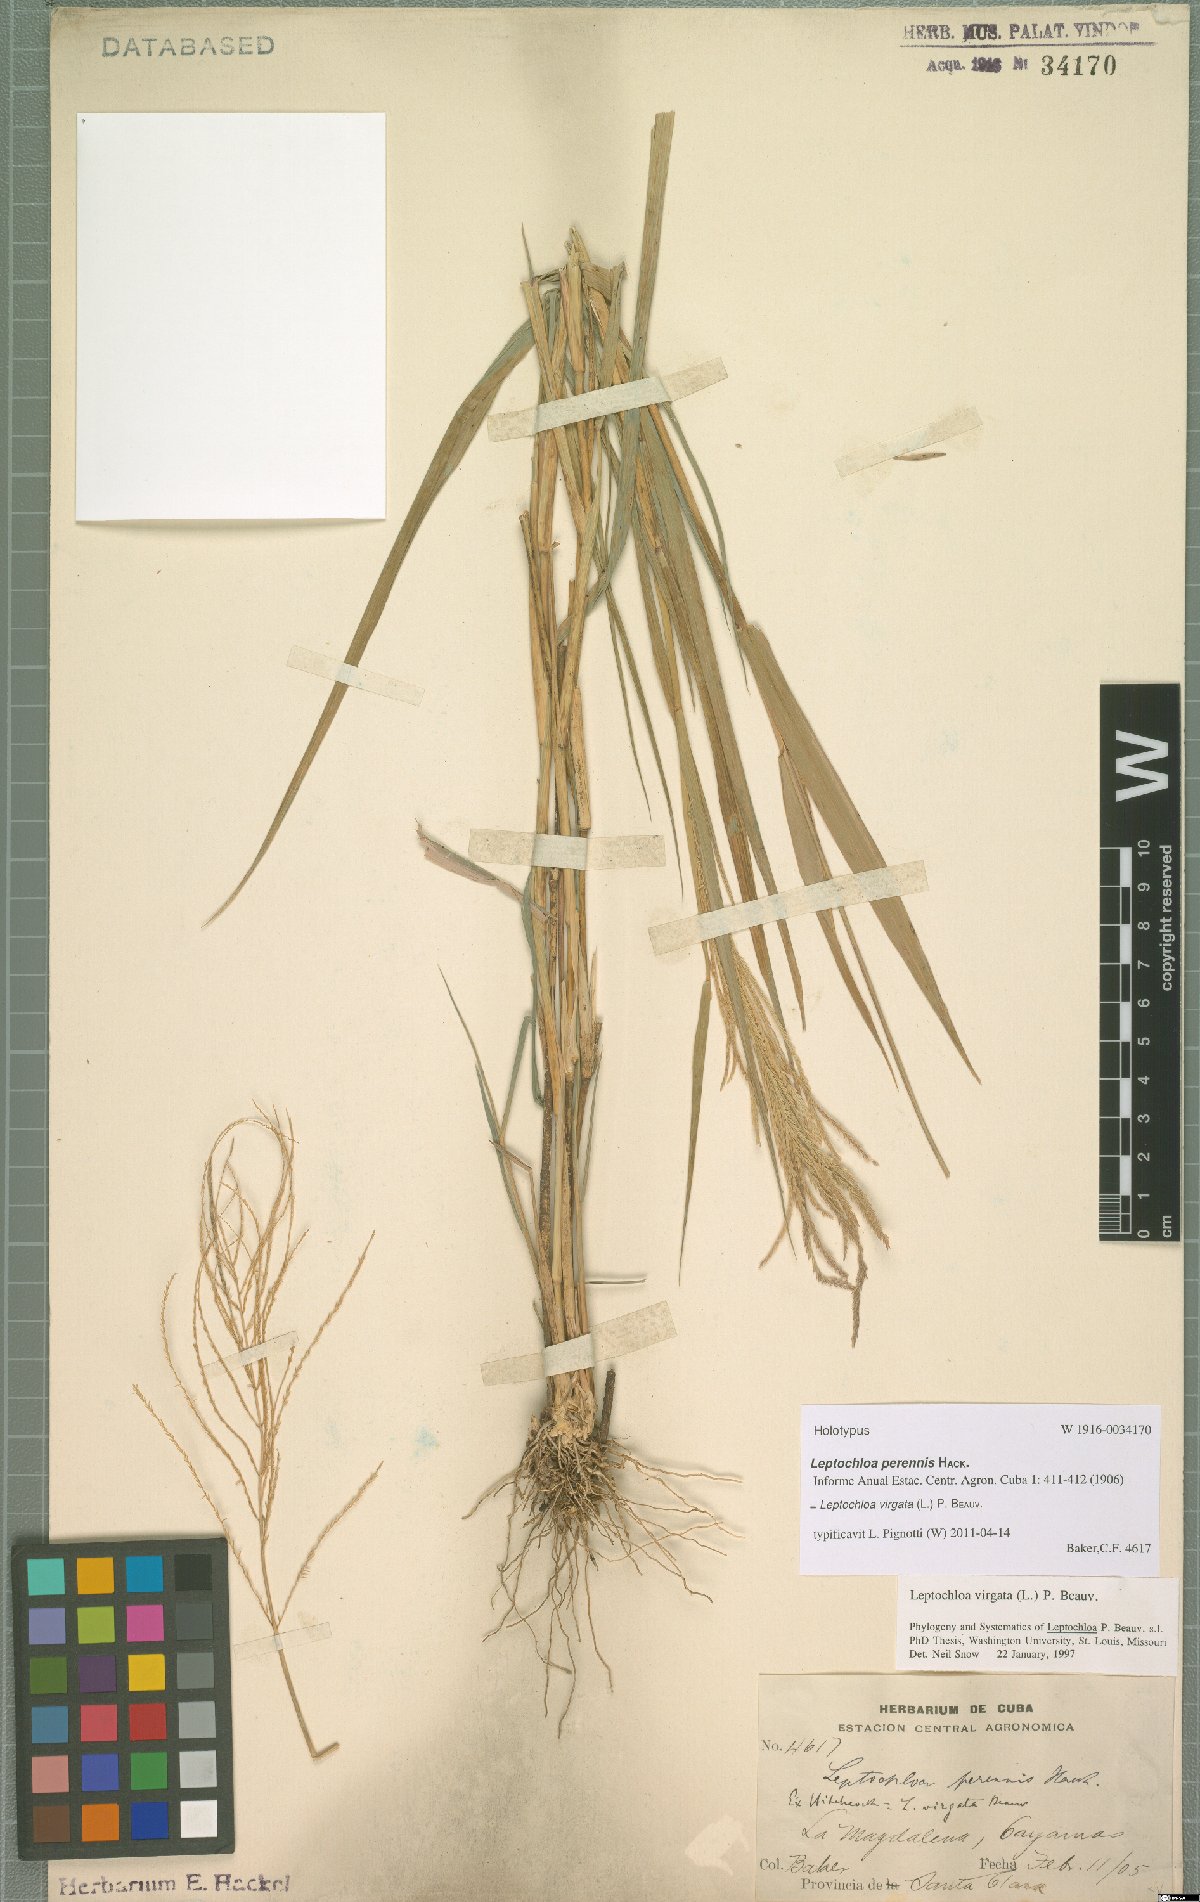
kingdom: Plantae
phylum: Tracheophyta
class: Liliopsida
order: Poales
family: Poaceae
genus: Leptochloa
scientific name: Leptochloa virgata
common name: Tropical sprangletop
